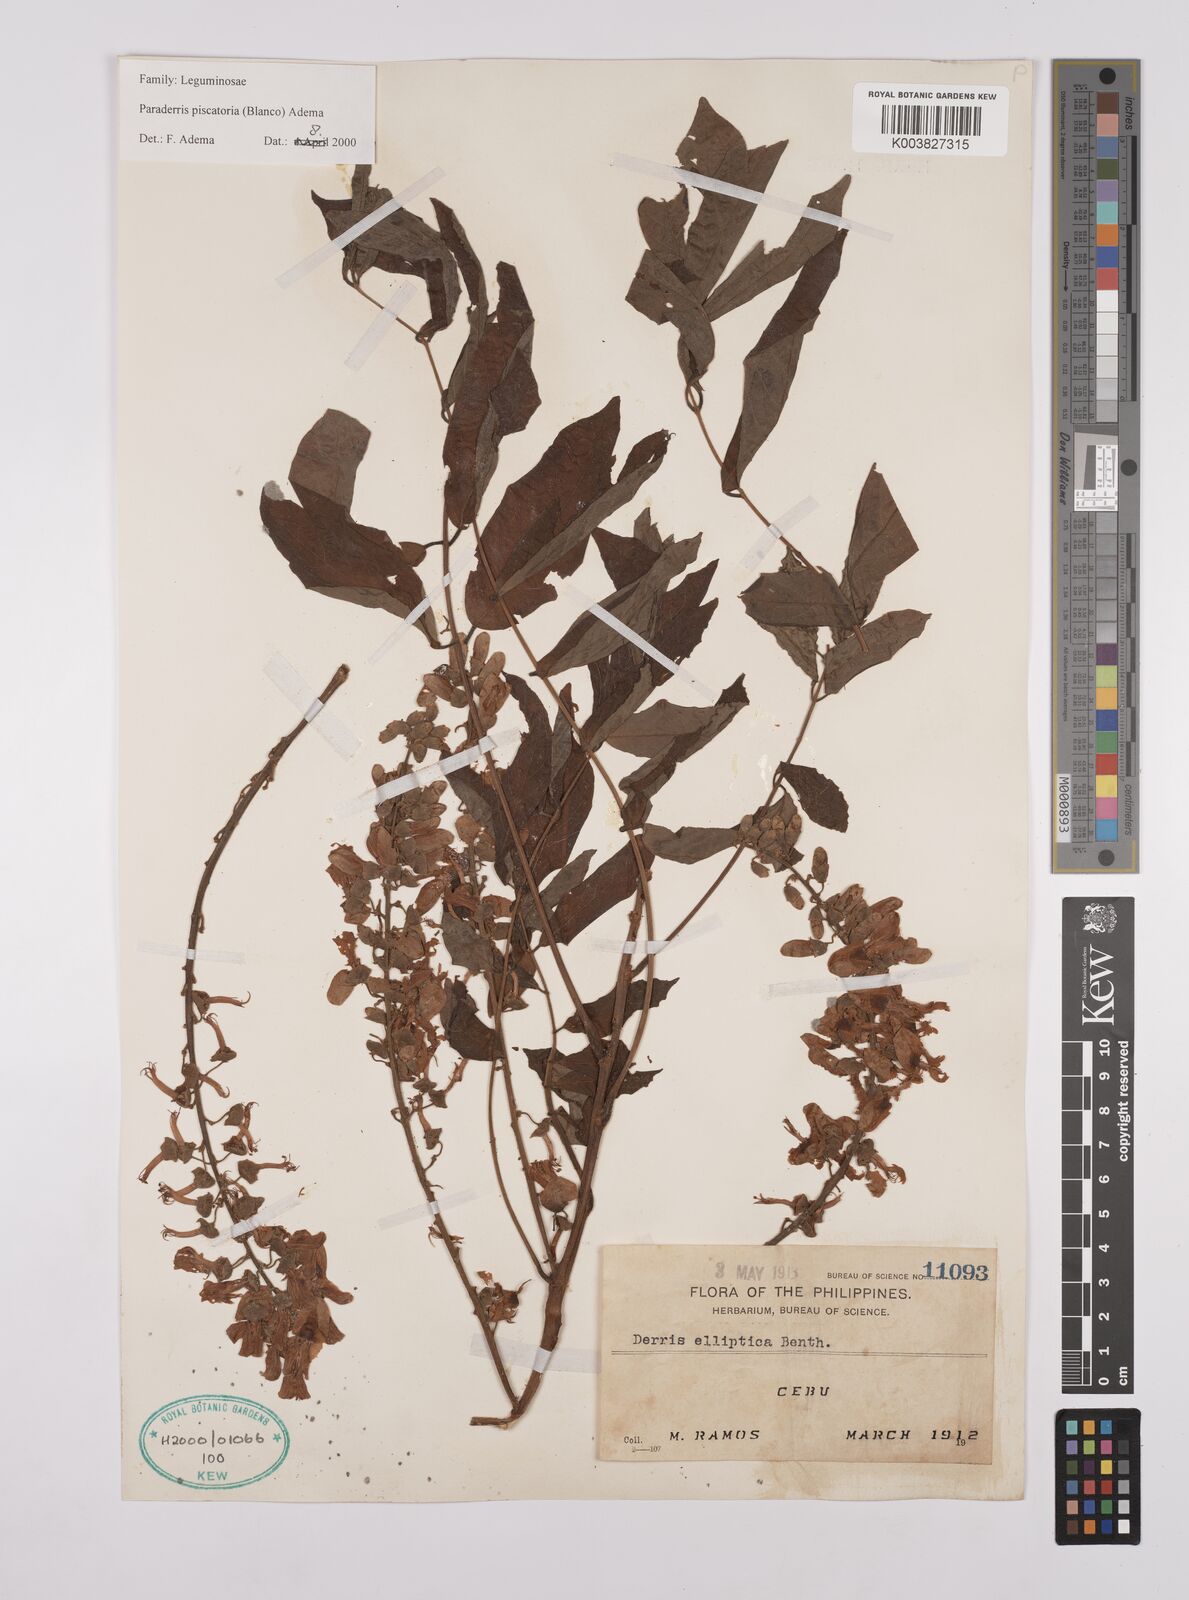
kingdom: Plantae
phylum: Tracheophyta
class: Magnoliopsida
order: Fabales
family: Fabaceae
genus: Derris
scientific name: Derris piscatoria
